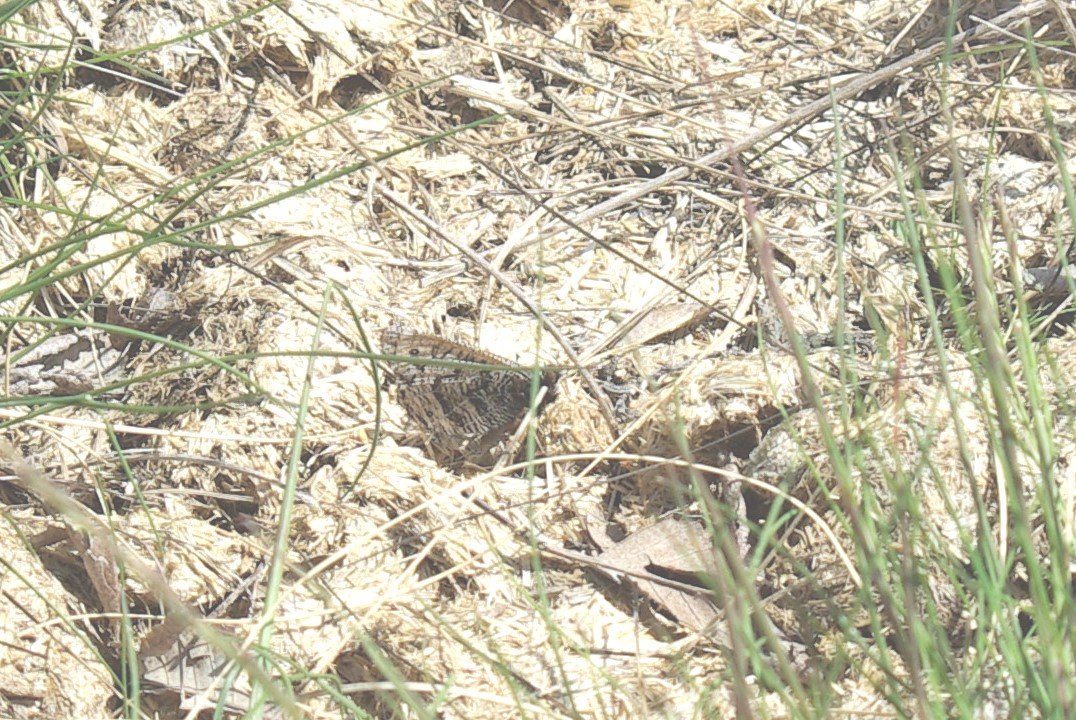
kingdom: Animalia
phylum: Arthropoda
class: Insecta
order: Lepidoptera
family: Nymphalidae
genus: Oeneis
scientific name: Oeneis alberta
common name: Alberta Arctic
